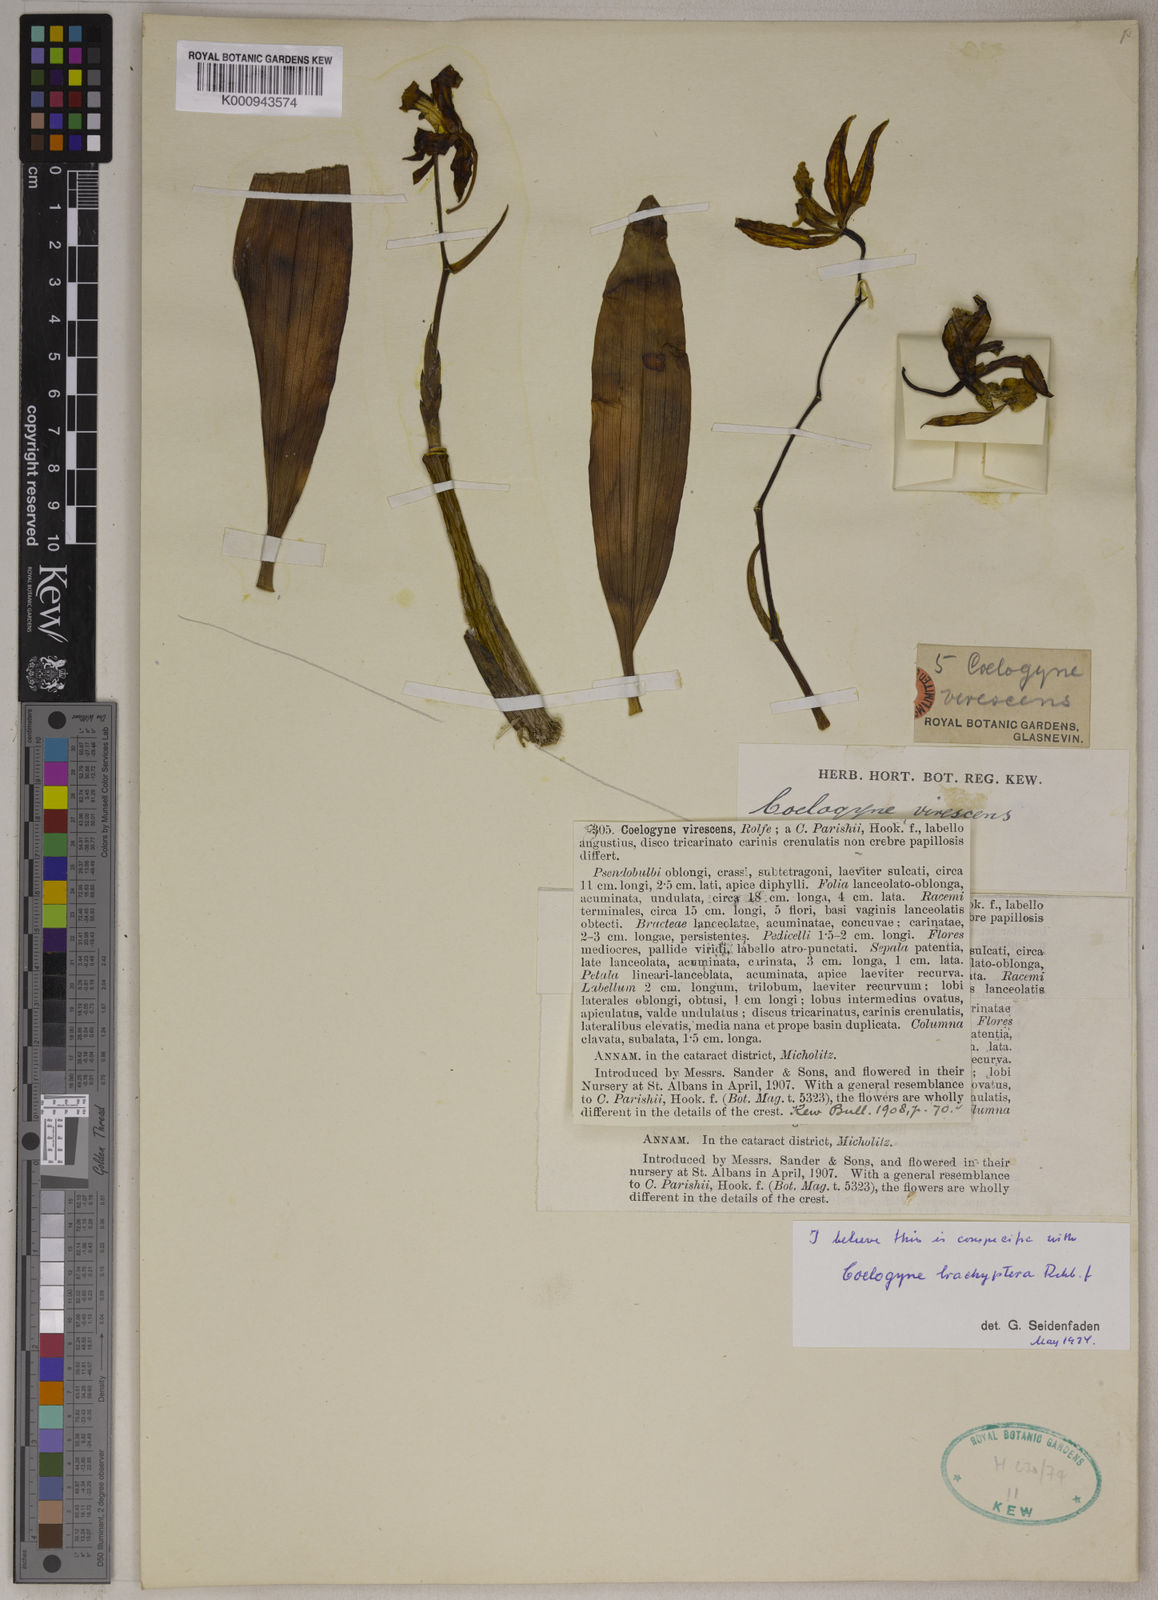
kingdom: Plantae
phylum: Tracheophyta
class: Liliopsida
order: Asparagales
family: Orchidaceae
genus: Coelogyne
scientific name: Coelogyne brachyptera
